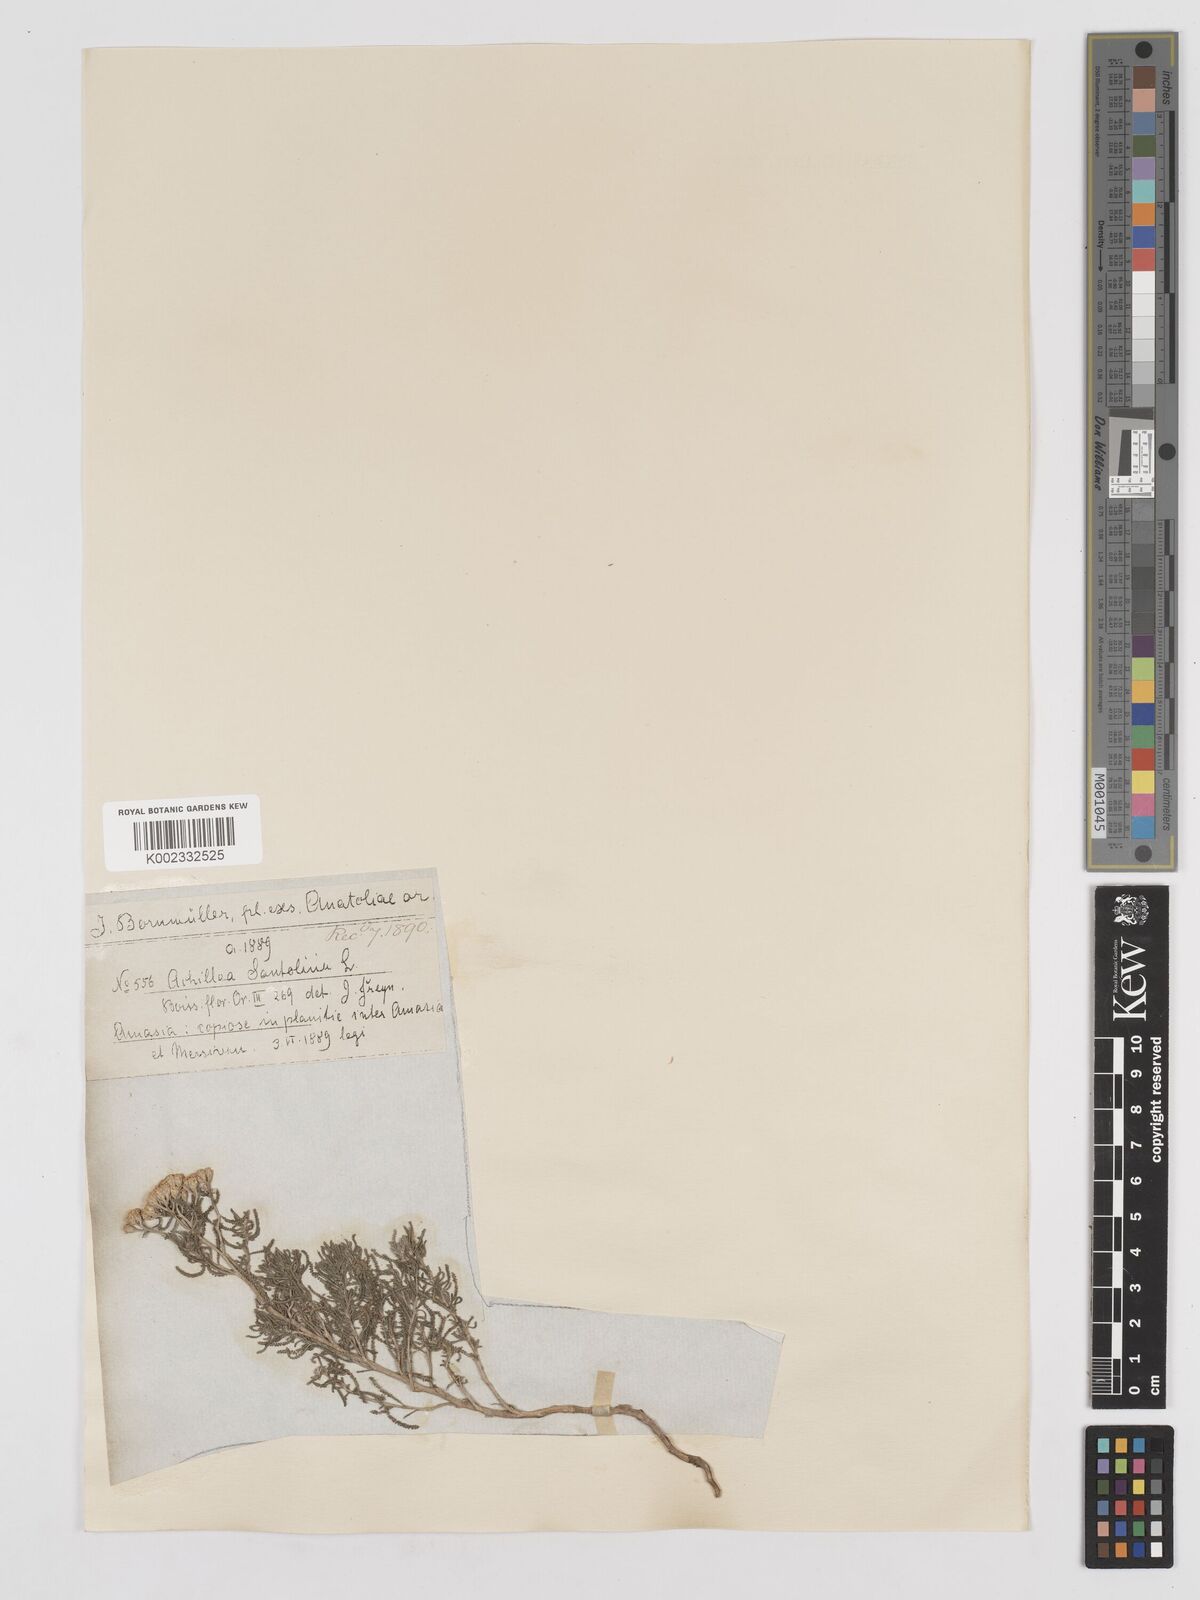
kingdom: Plantae
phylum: Tracheophyta
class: Magnoliopsida
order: Asterales
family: Asteraceae
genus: Achillea
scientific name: Achillea tenuifolia
